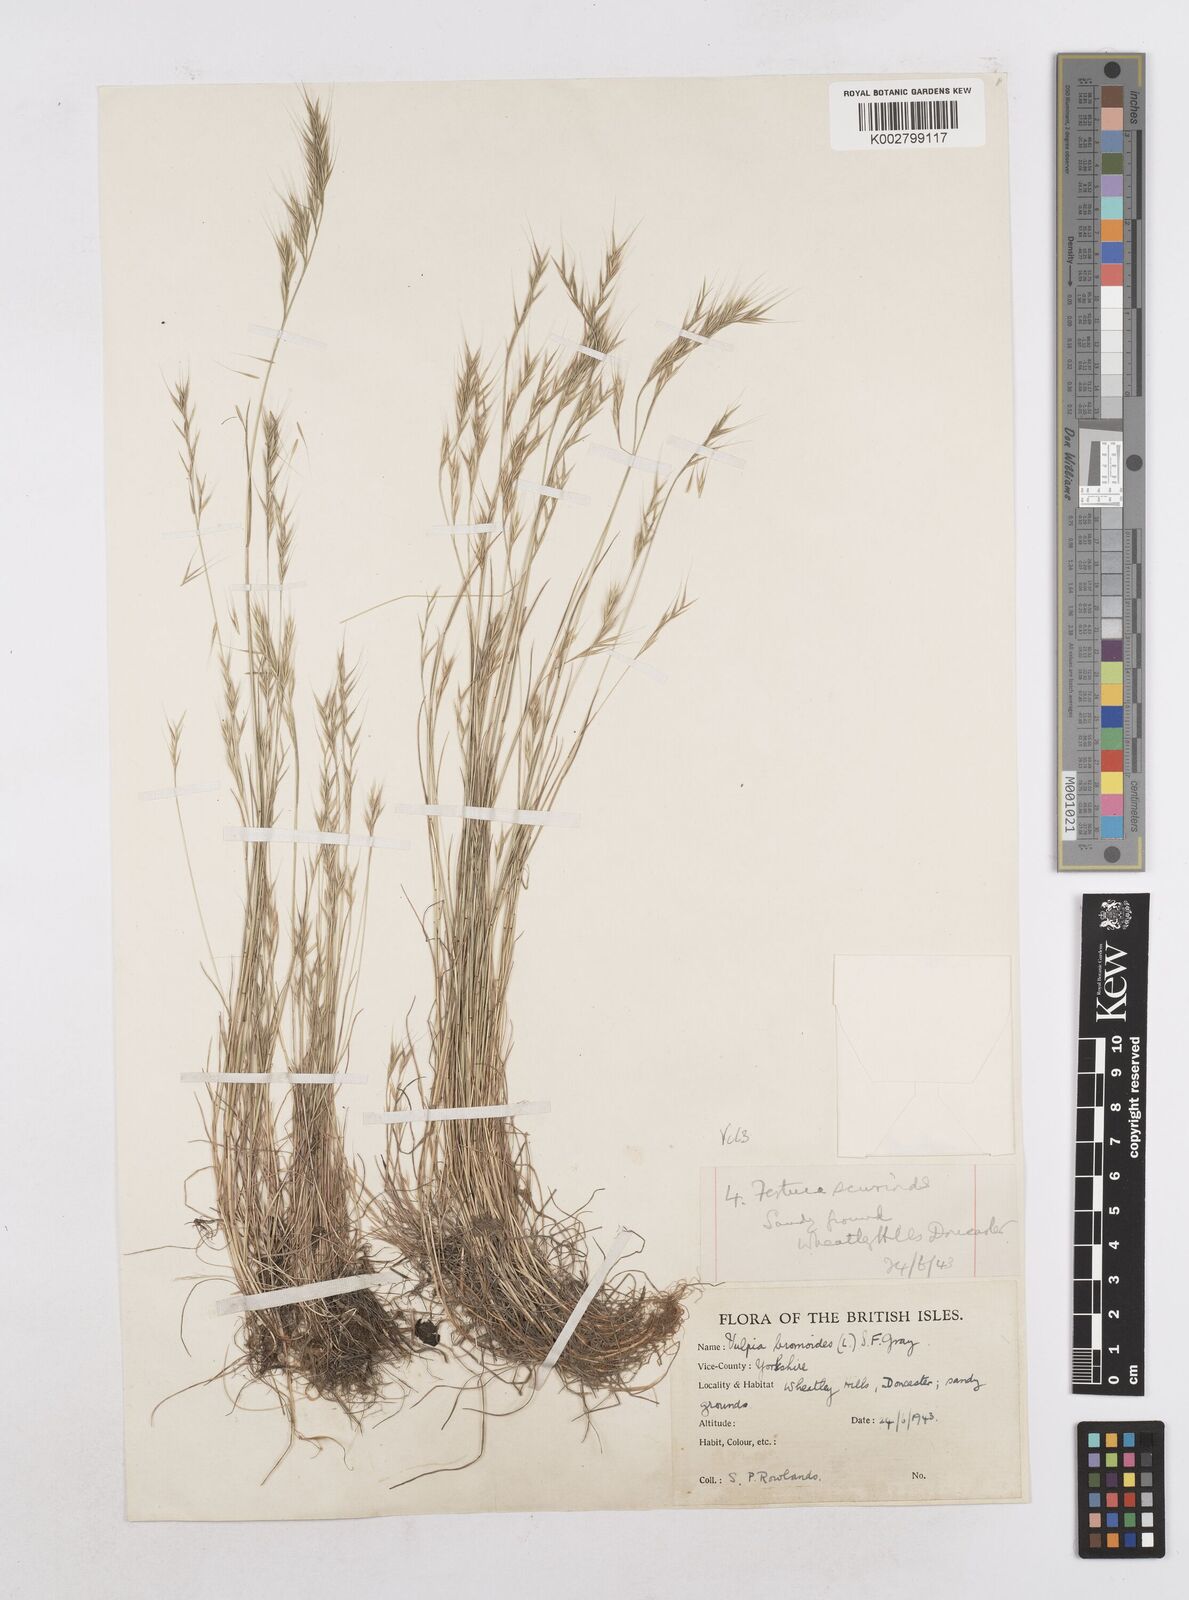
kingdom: Plantae
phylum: Tracheophyta
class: Liliopsida
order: Poales
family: Poaceae
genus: Festuca
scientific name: Festuca bromoides
